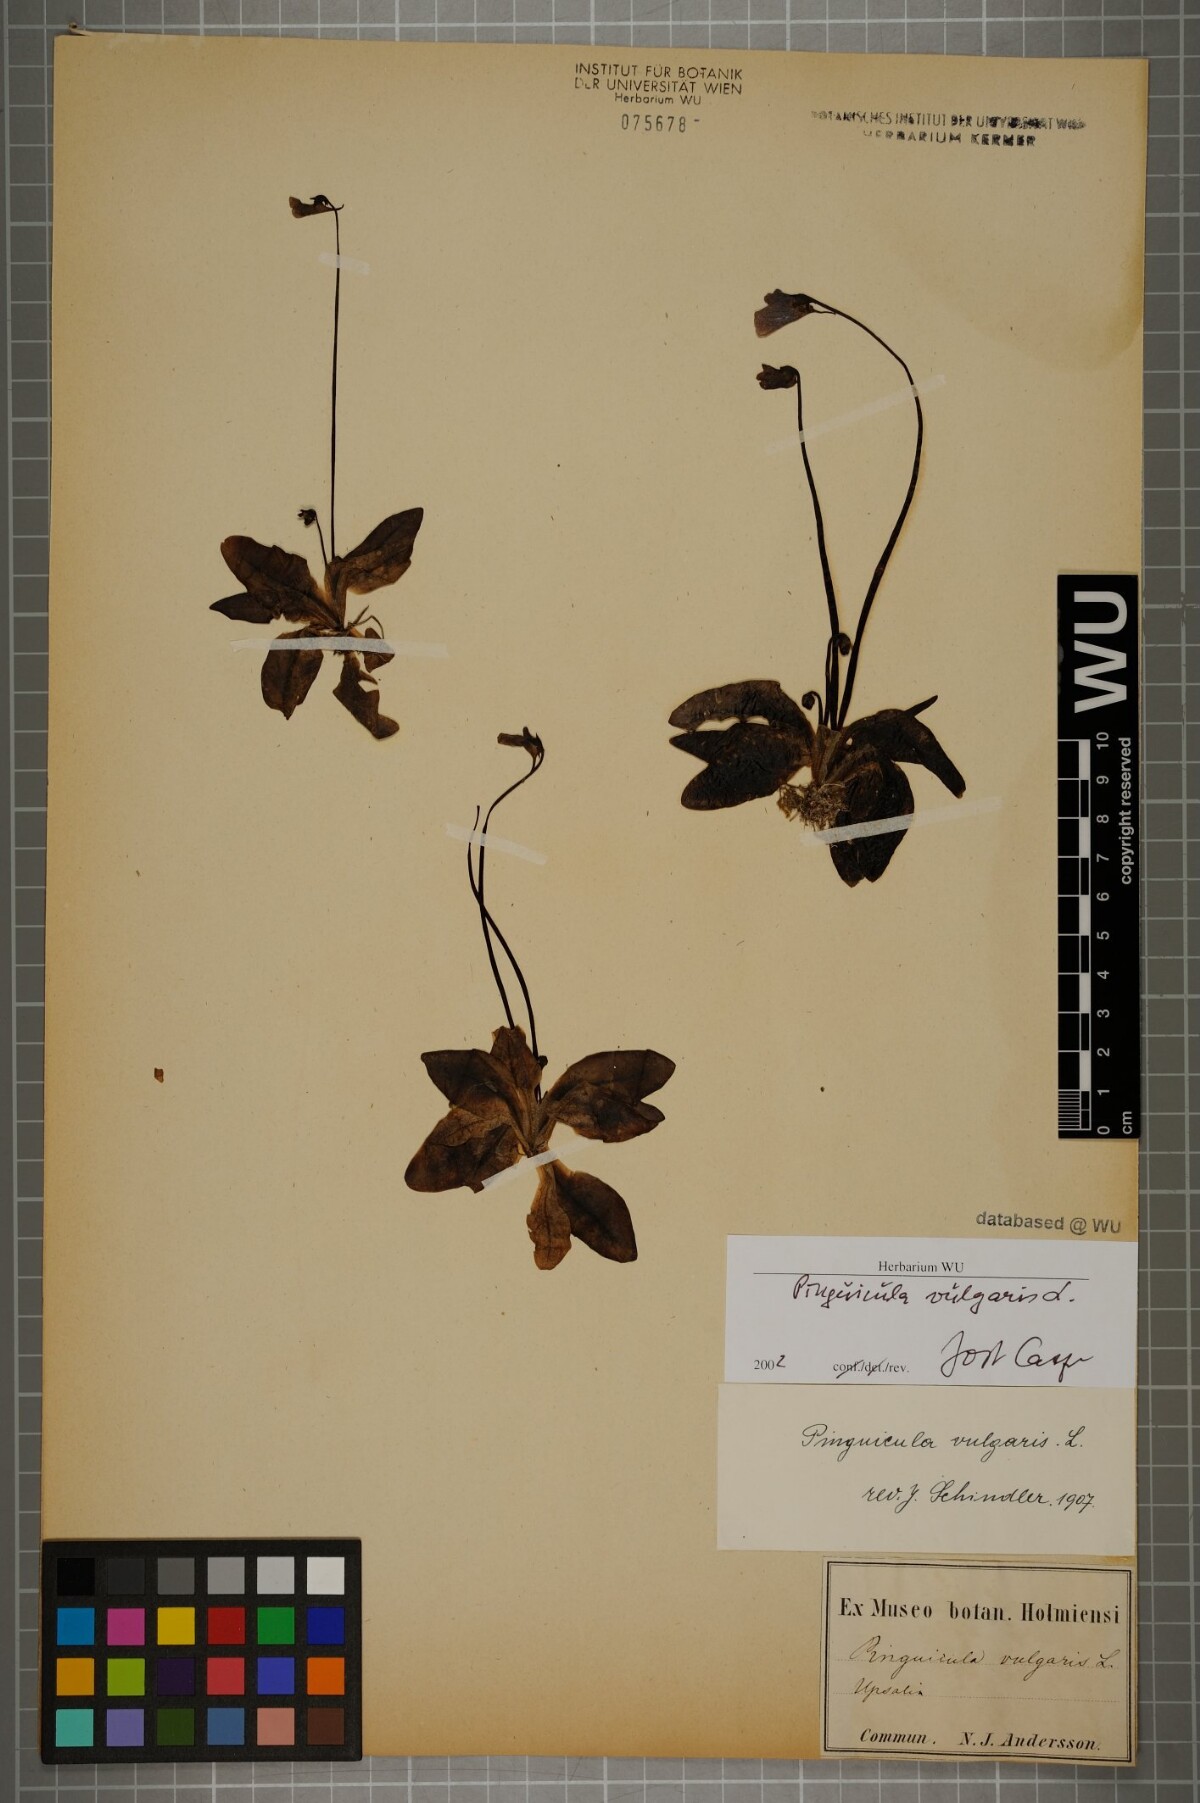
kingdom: Plantae
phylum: Tracheophyta
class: Magnoliopsida
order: Lamiales
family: Lentibulariaceae
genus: Pinguicula
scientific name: Pinguicula vulgaris
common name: Common butterwort
